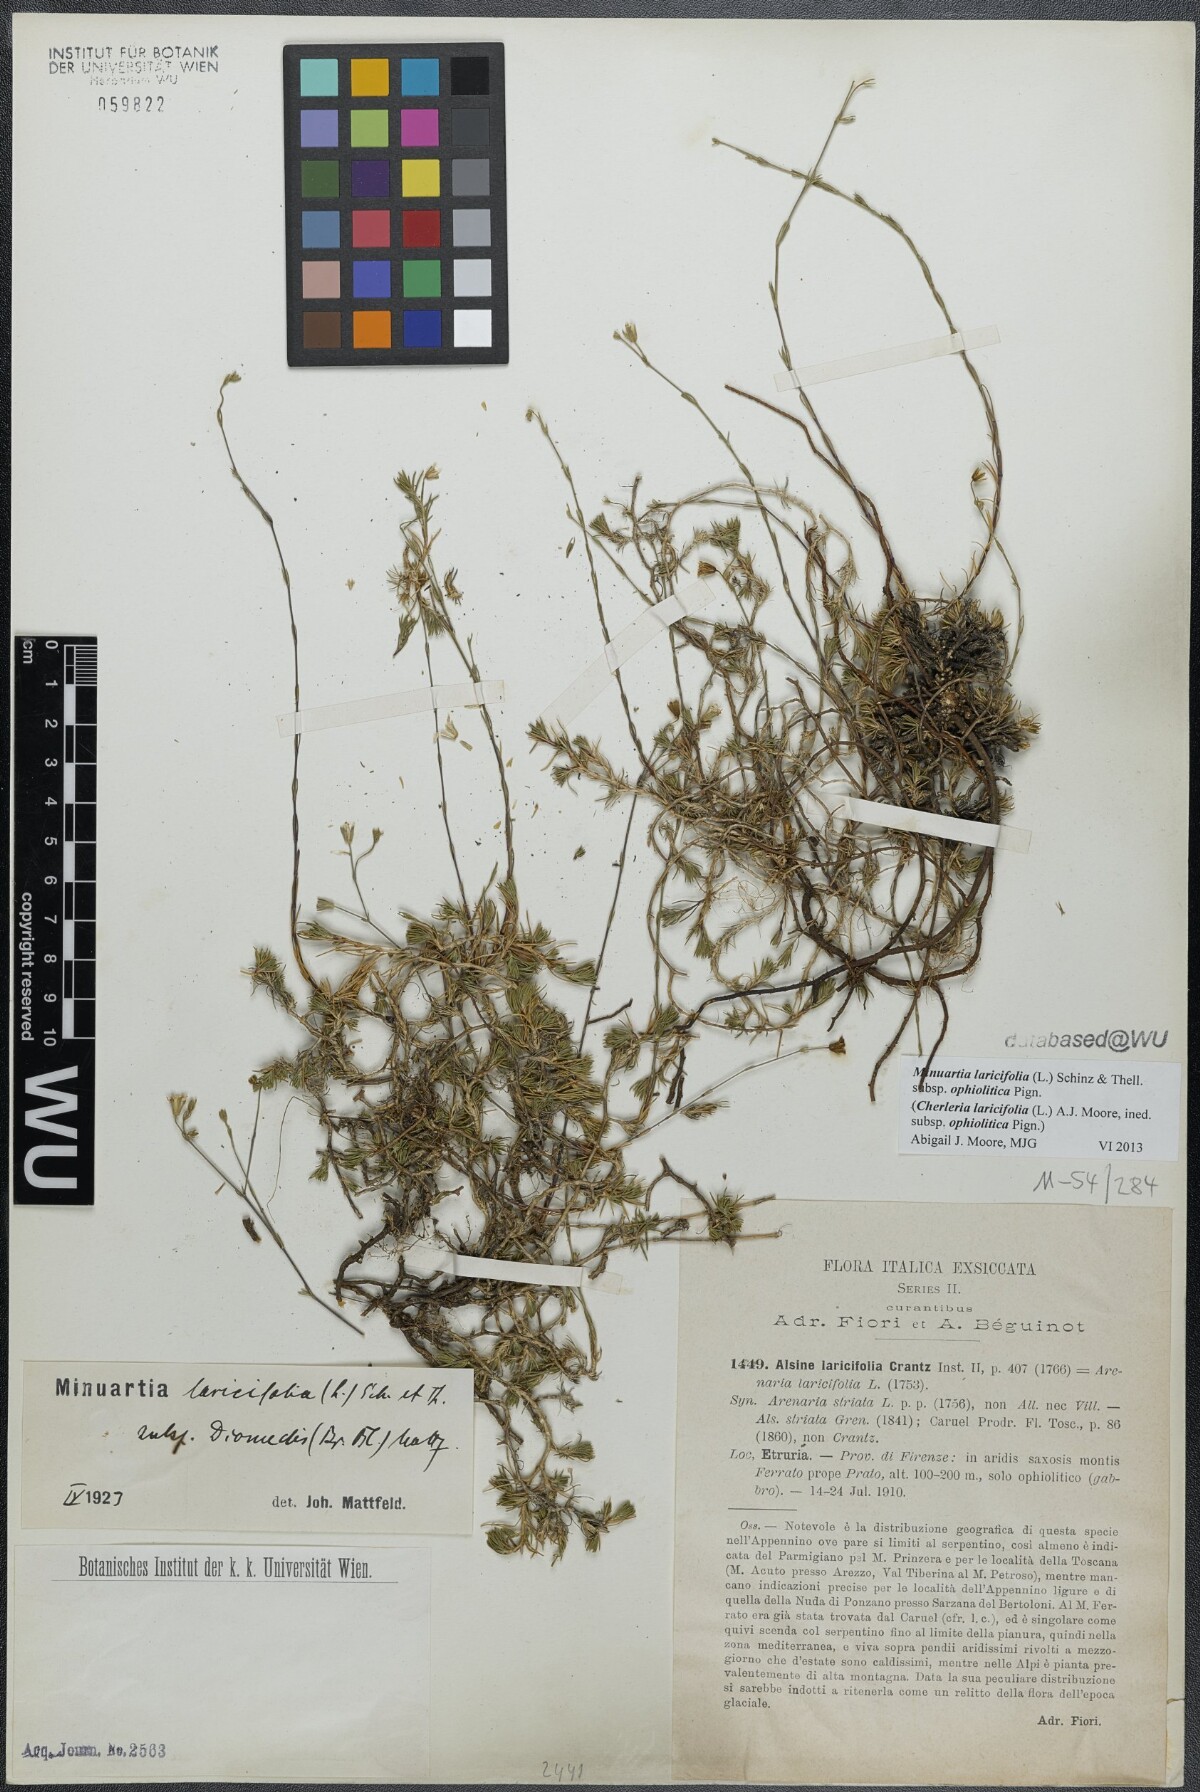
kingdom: Plantae
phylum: Tracheophyta
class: Magnoliopsida
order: Caryophyllales
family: Caryophyllaceae
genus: Cherleria
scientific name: Cherleria laricifolia
